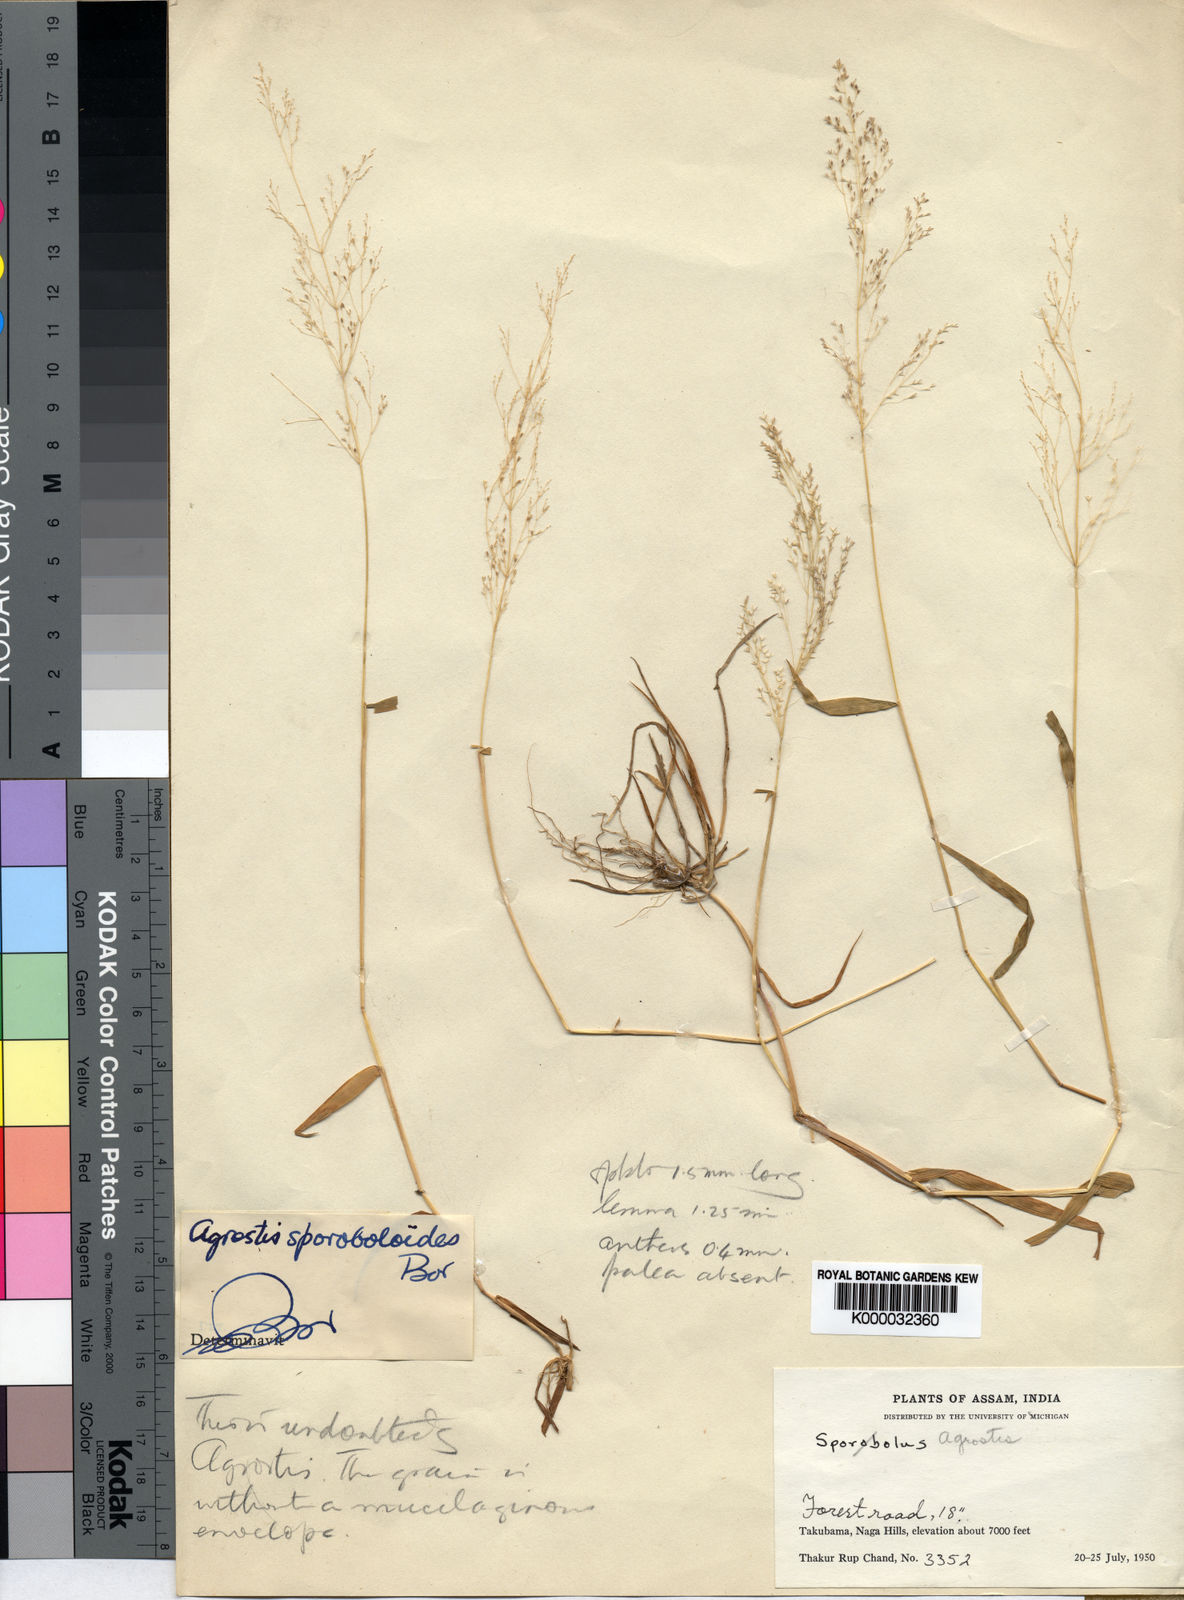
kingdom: Plantae
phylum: Tracheophyta
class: Liliopsida
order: Poales
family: Poaceae
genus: Agrostis
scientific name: Agrostis
